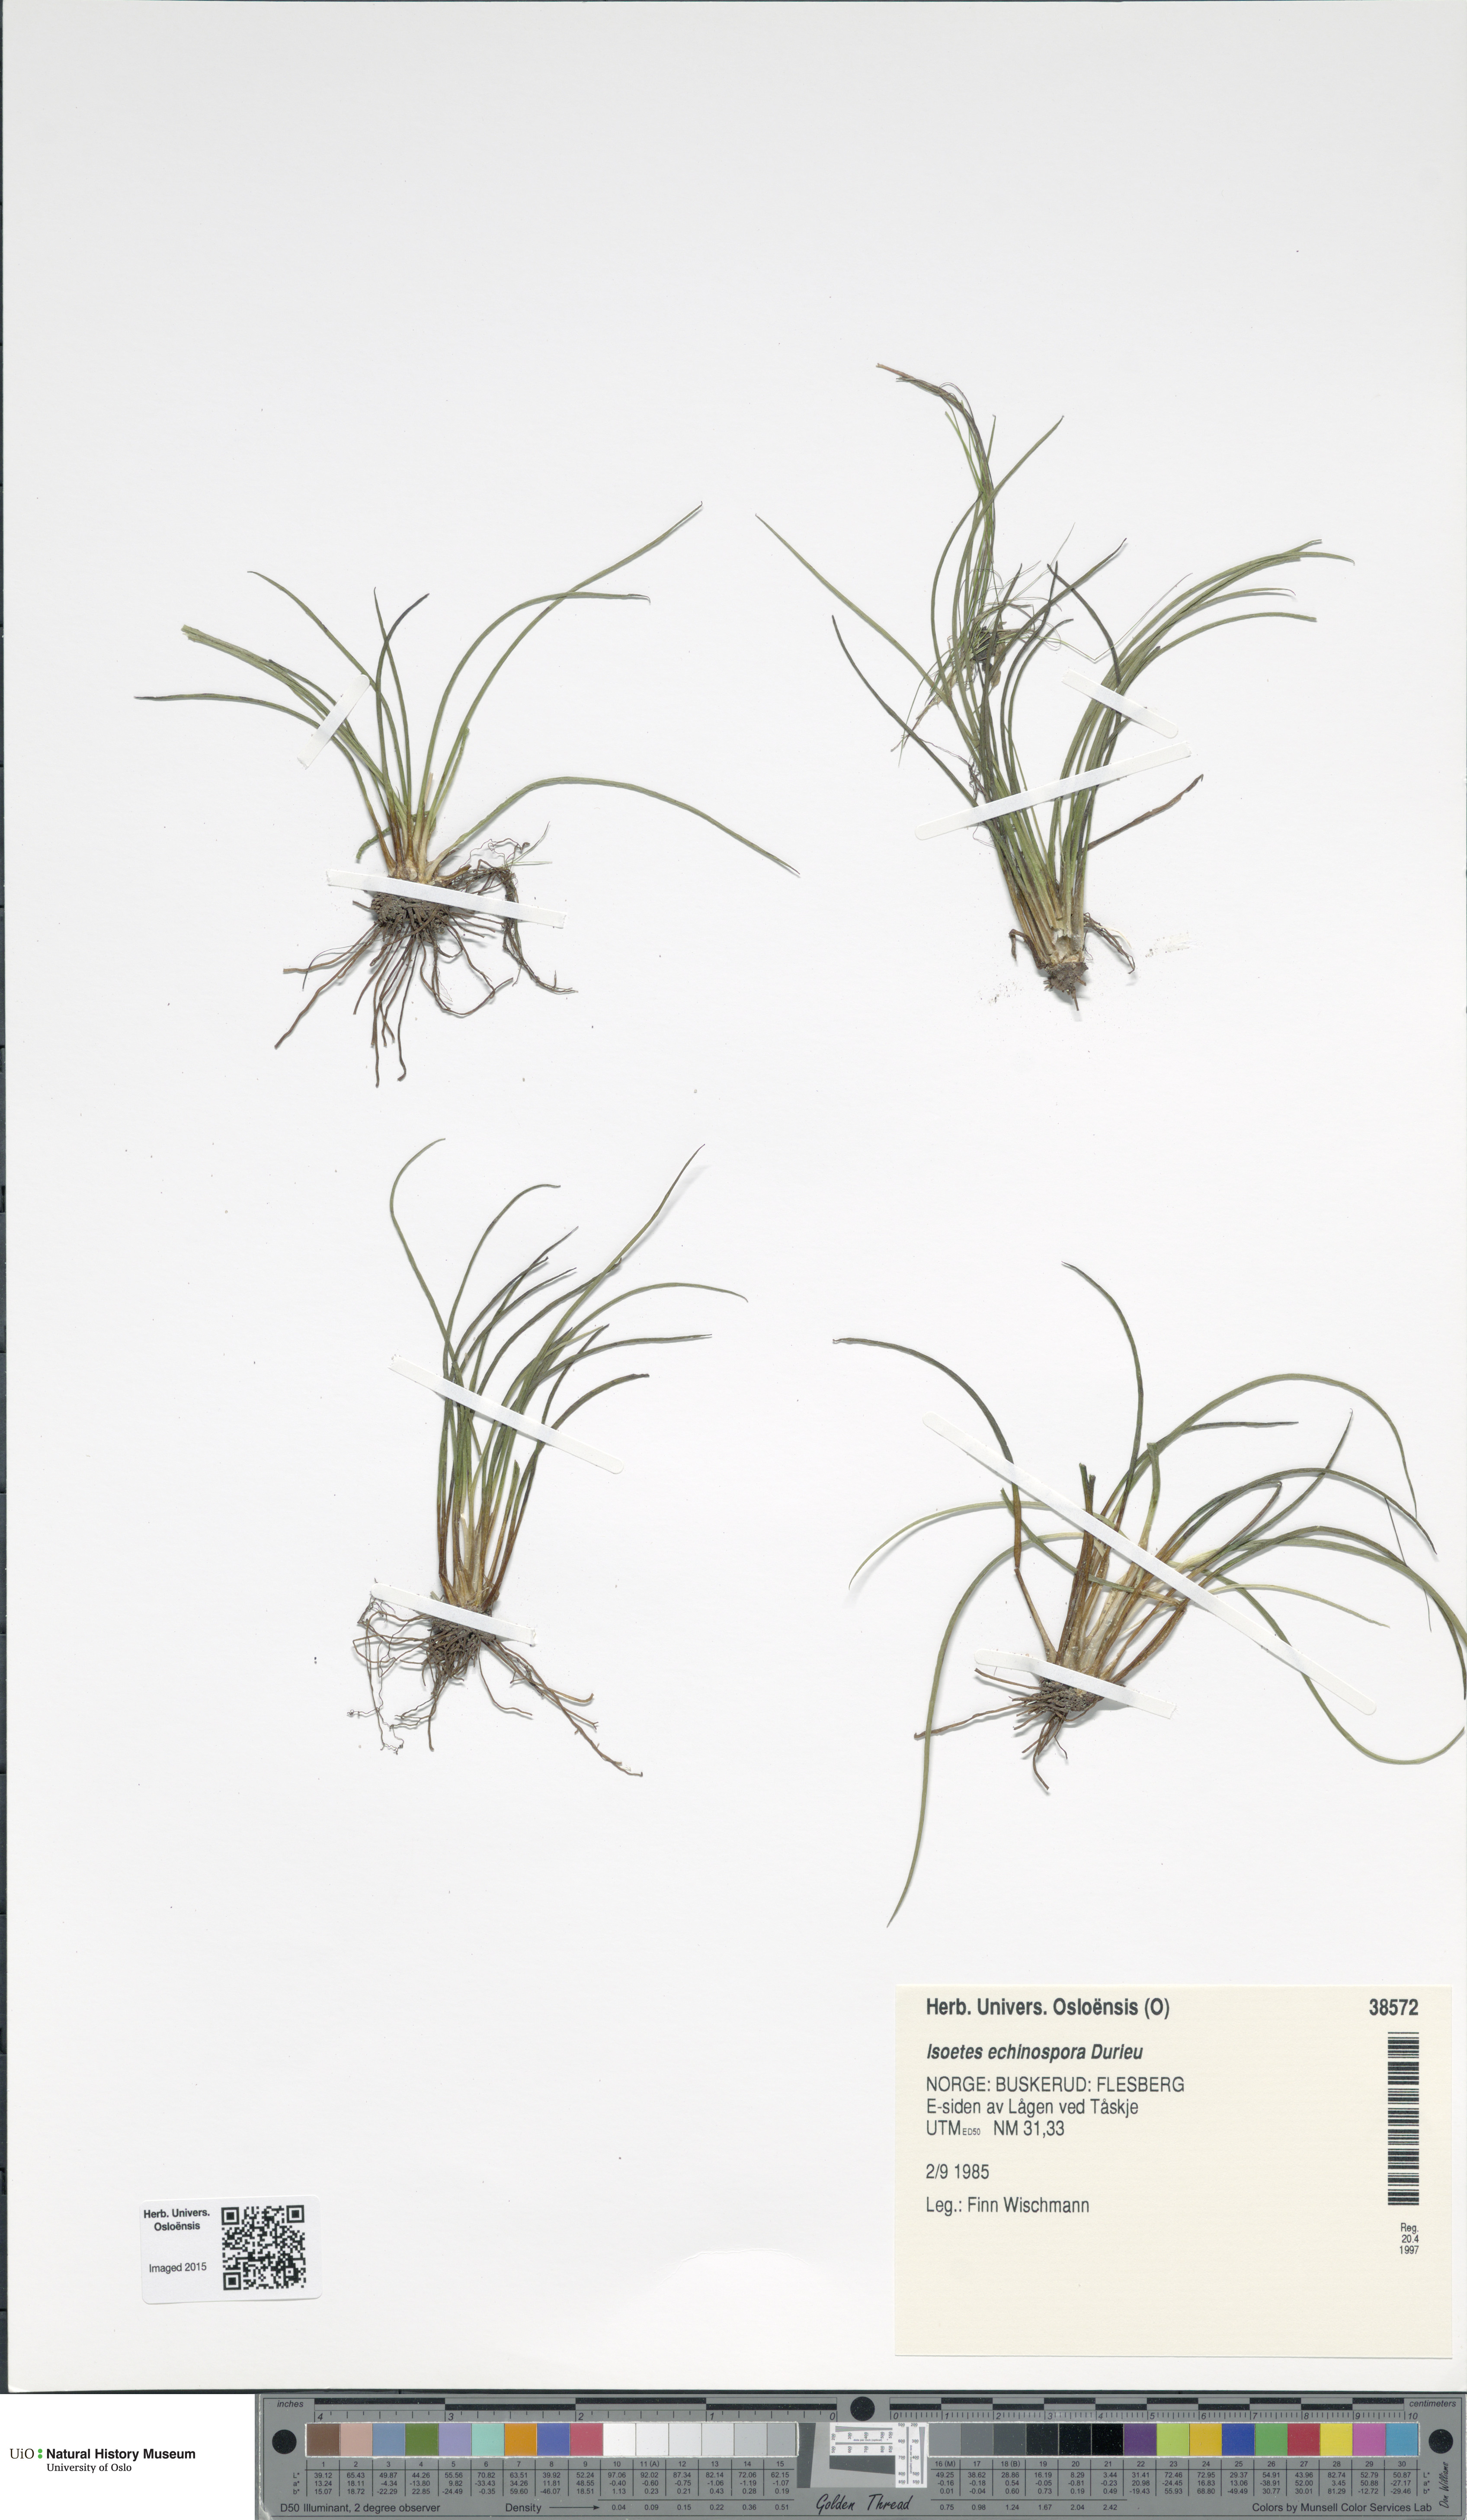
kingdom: Plantae
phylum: Tracheophyta
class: Lycopodiopsida
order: Isoetales
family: Isoetaceae
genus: Isoetes
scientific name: Isoetes echinospora
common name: Spring quillwort
